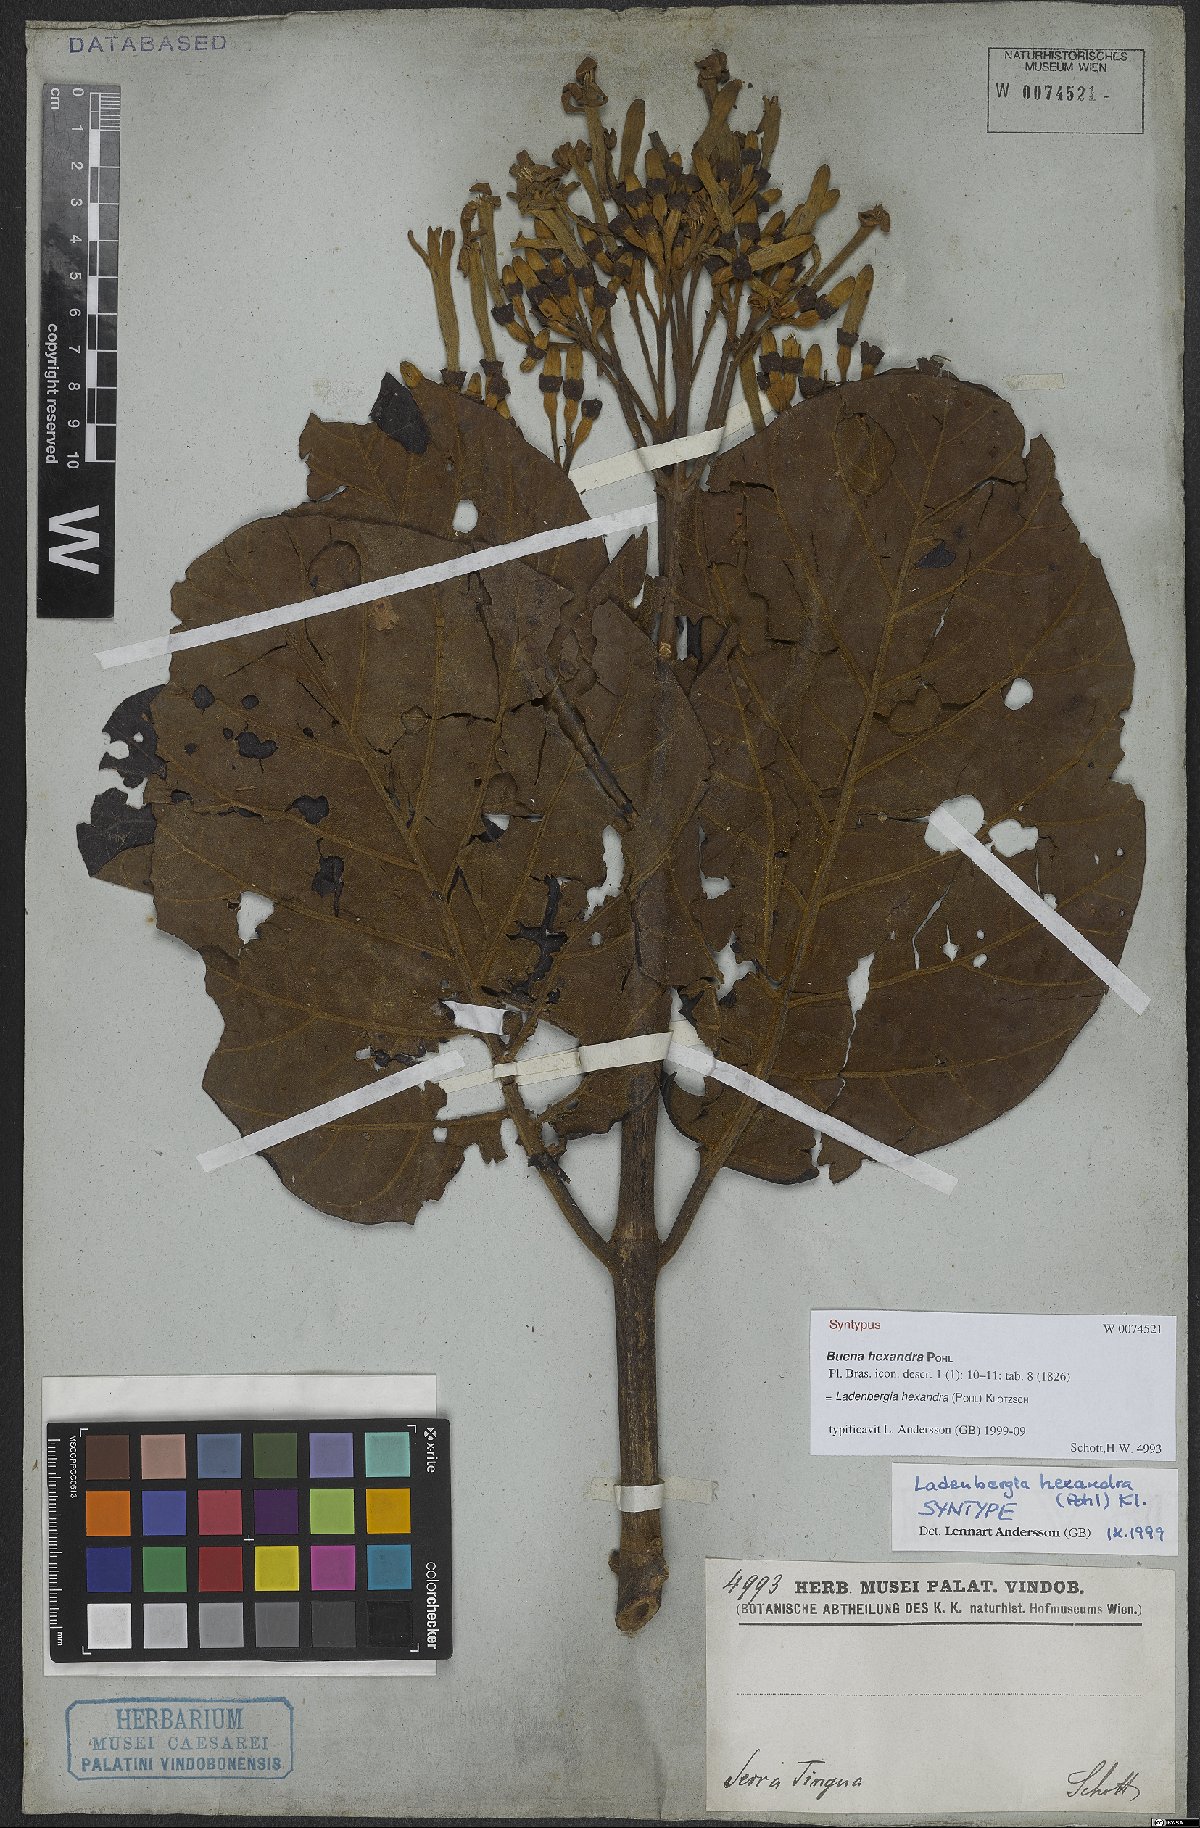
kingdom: Plantae
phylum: Tracheophyta
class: Magnoliopsida
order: Gentianales
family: Rubiaceae
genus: Ladenbergia
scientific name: Ladenbergia hexandra
